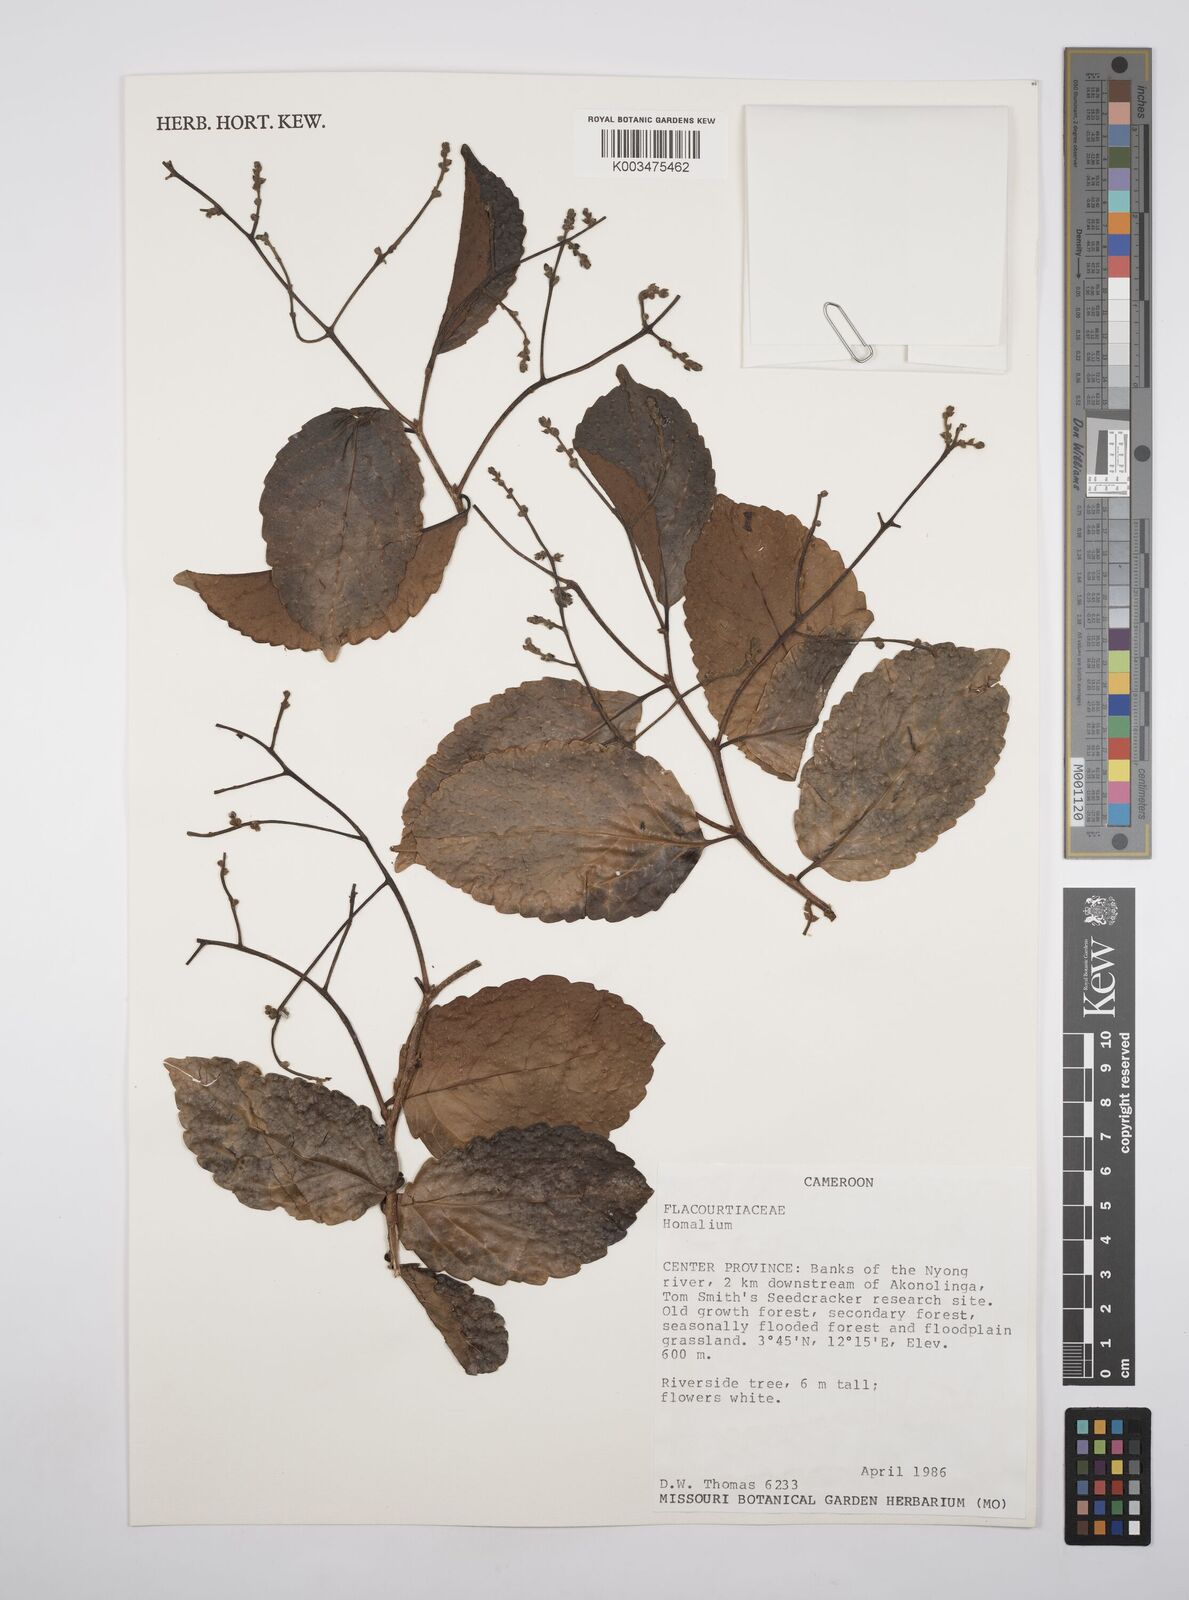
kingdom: Plantae
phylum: Tracheophyta
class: Magnoliopsida
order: Malpighiales
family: Salicaceae
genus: Homalium
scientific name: Homalium
